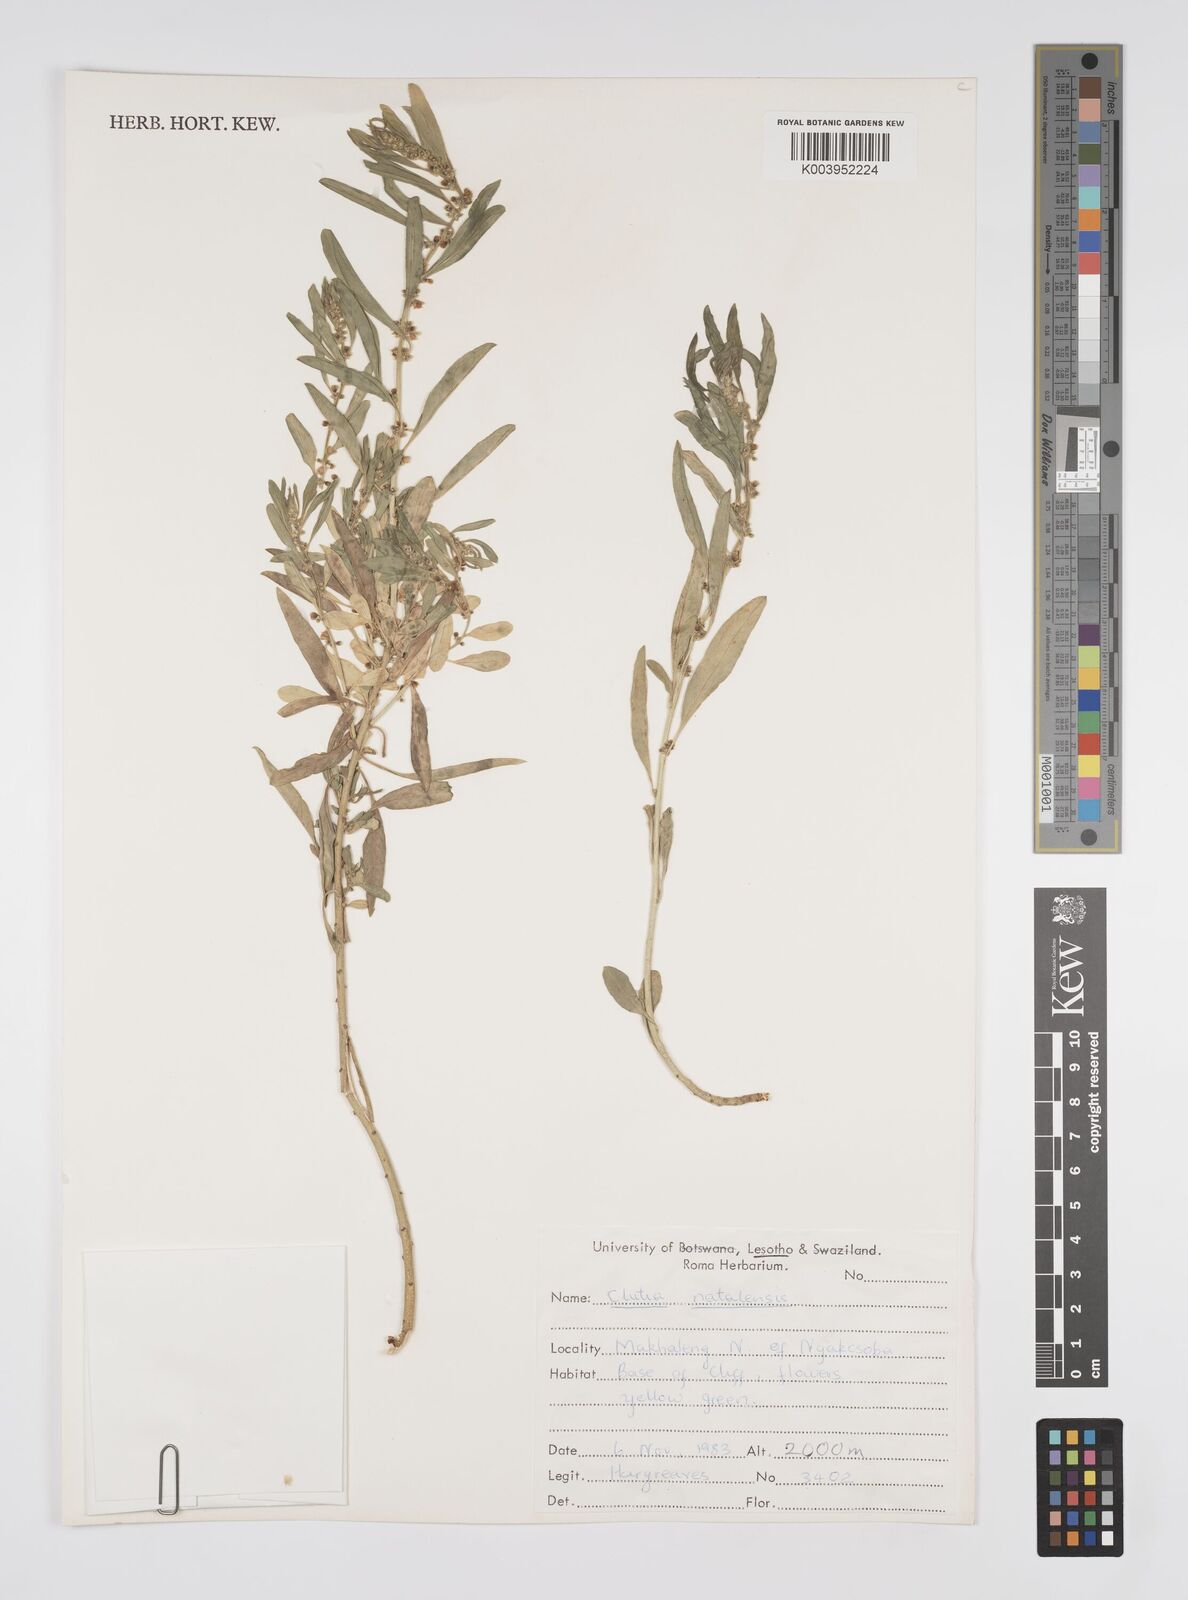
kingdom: Plantae
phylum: Tracheophyta
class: Magnoliopsida
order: Malpighiales
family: Peraceae
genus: Clutia
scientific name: Clutia natalensis
